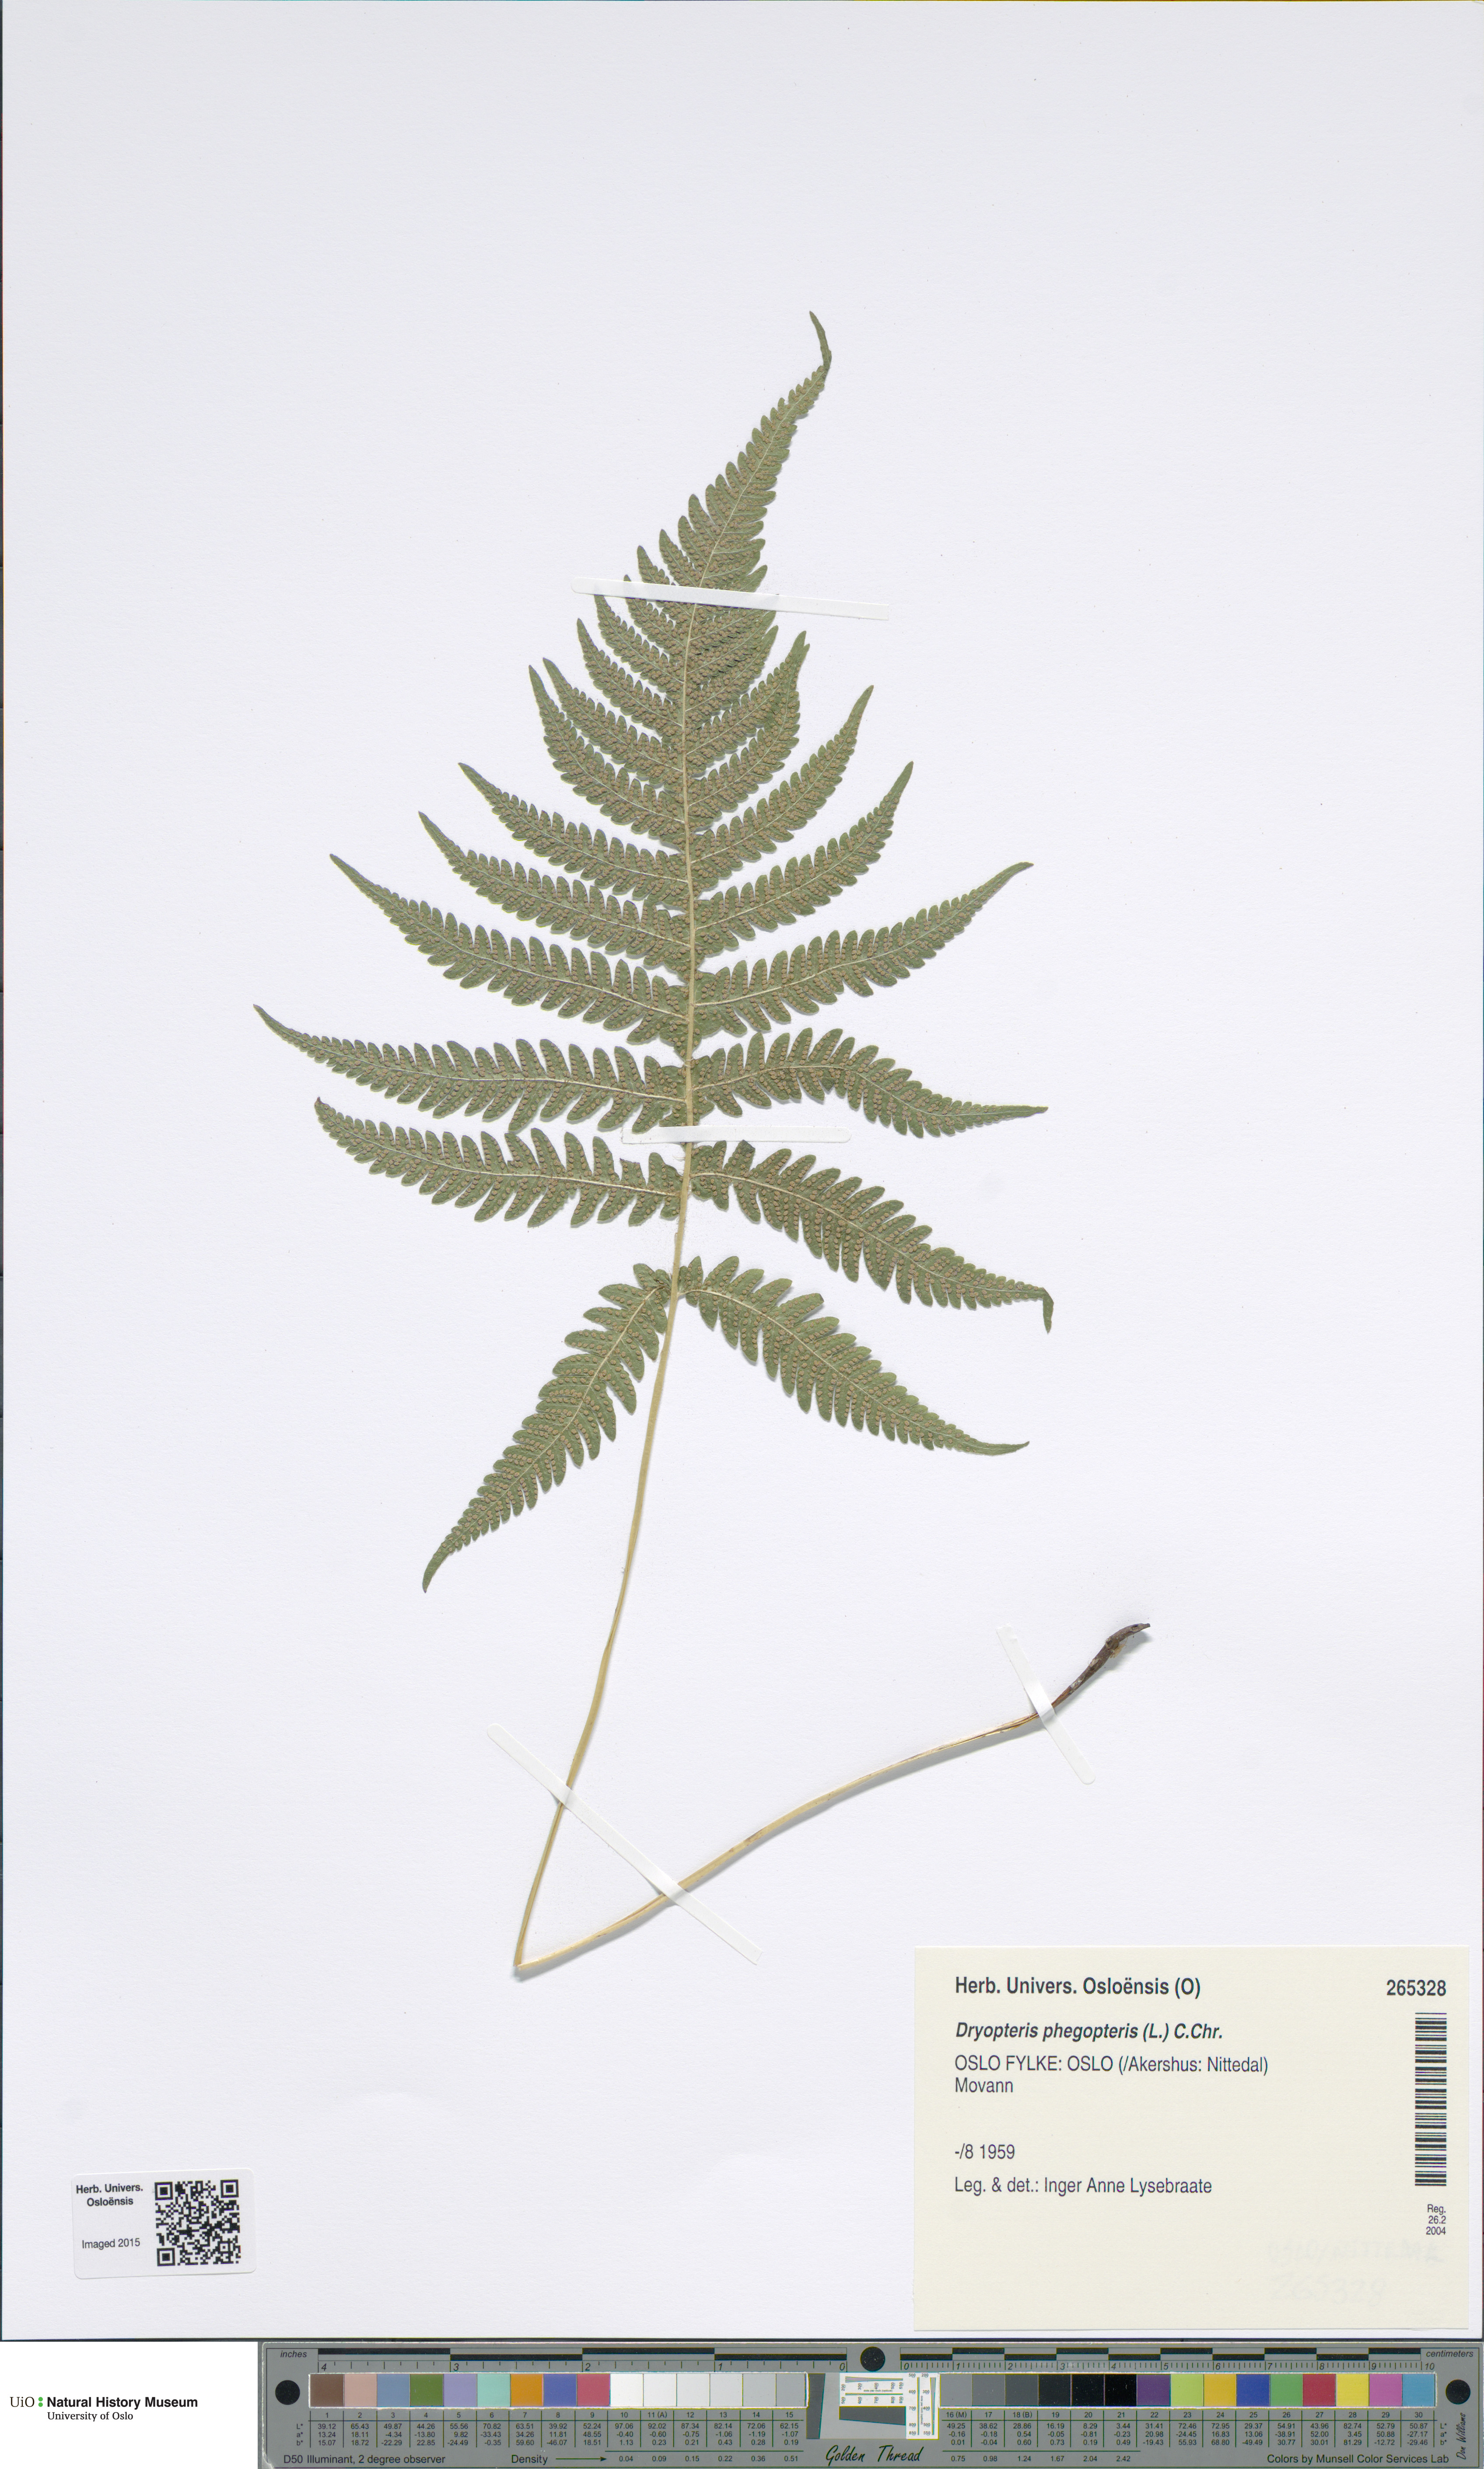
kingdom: Plantae
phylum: Tracheophyta
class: Polypodiopsida
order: Polypodiales
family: Thelypteridaceae
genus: Phegopteris
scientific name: Phegopteris connectilis
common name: Beech fern
